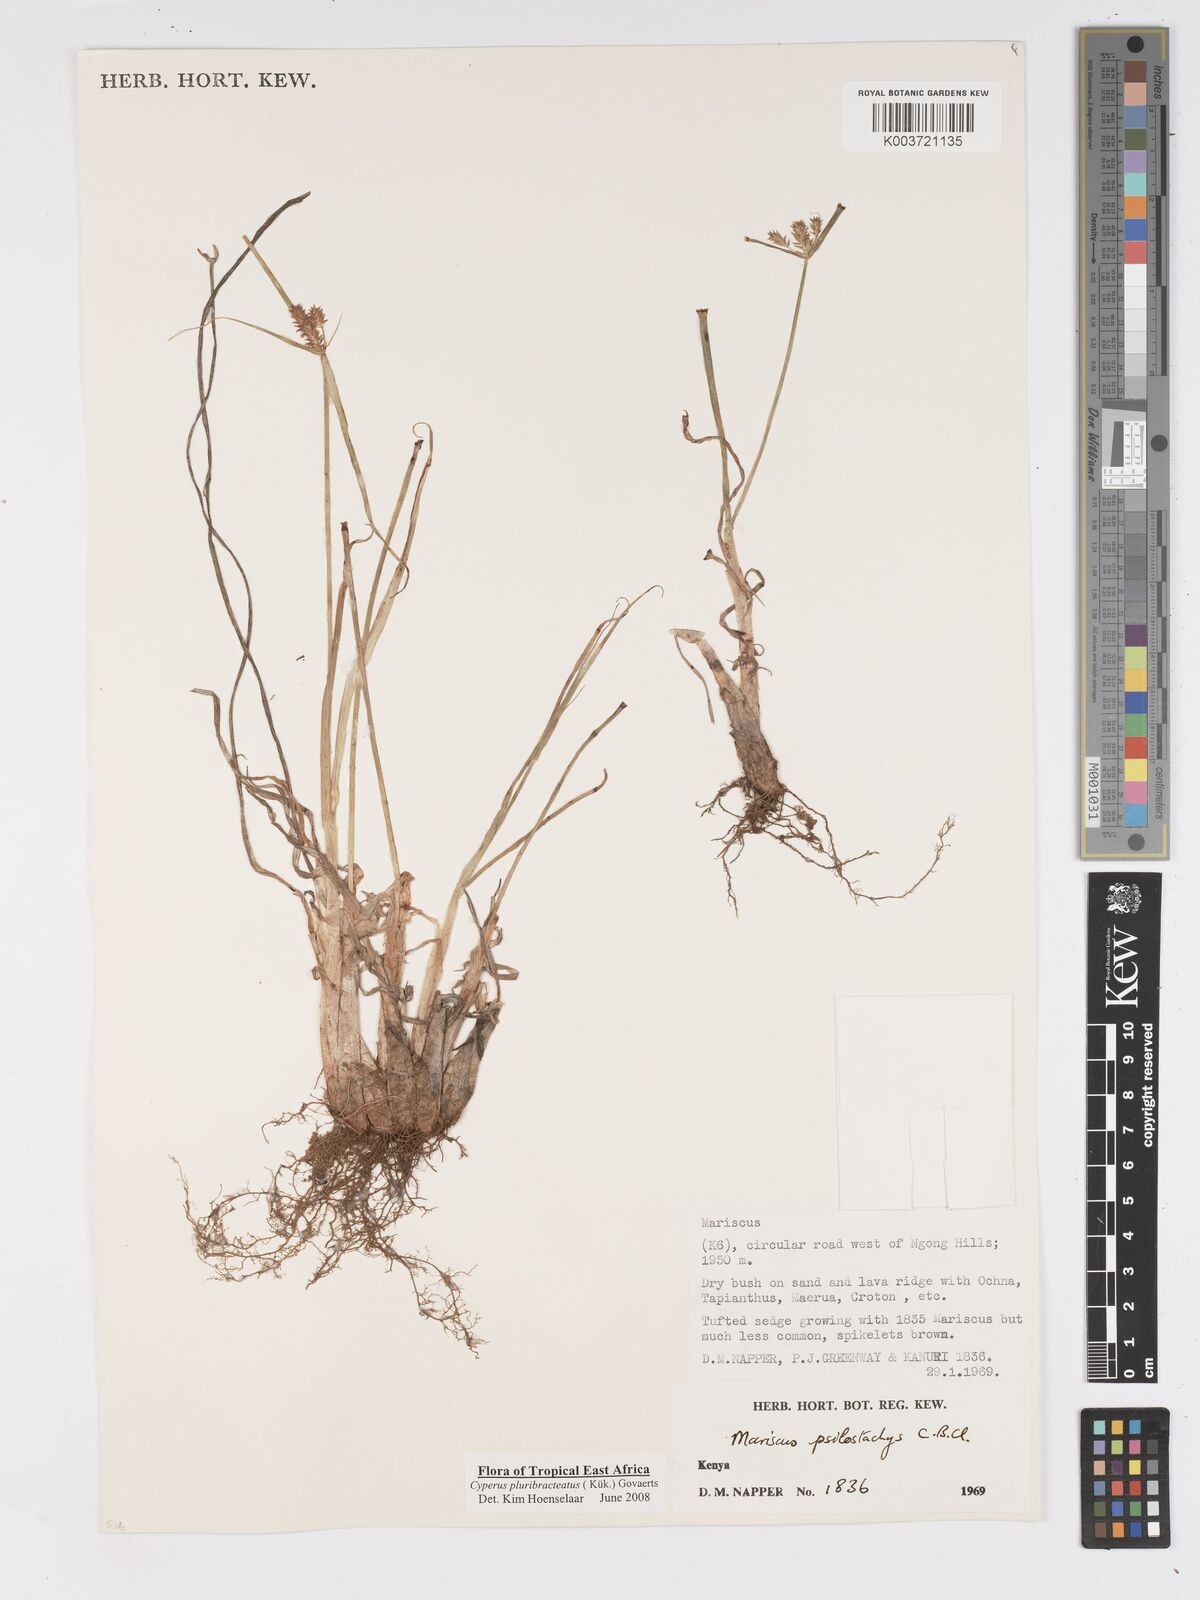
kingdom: Plantae
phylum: Tracheophyta
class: Liliopsida
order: Poales
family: Cyperaceae
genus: Cyperus
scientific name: Cyperus trigonellus
